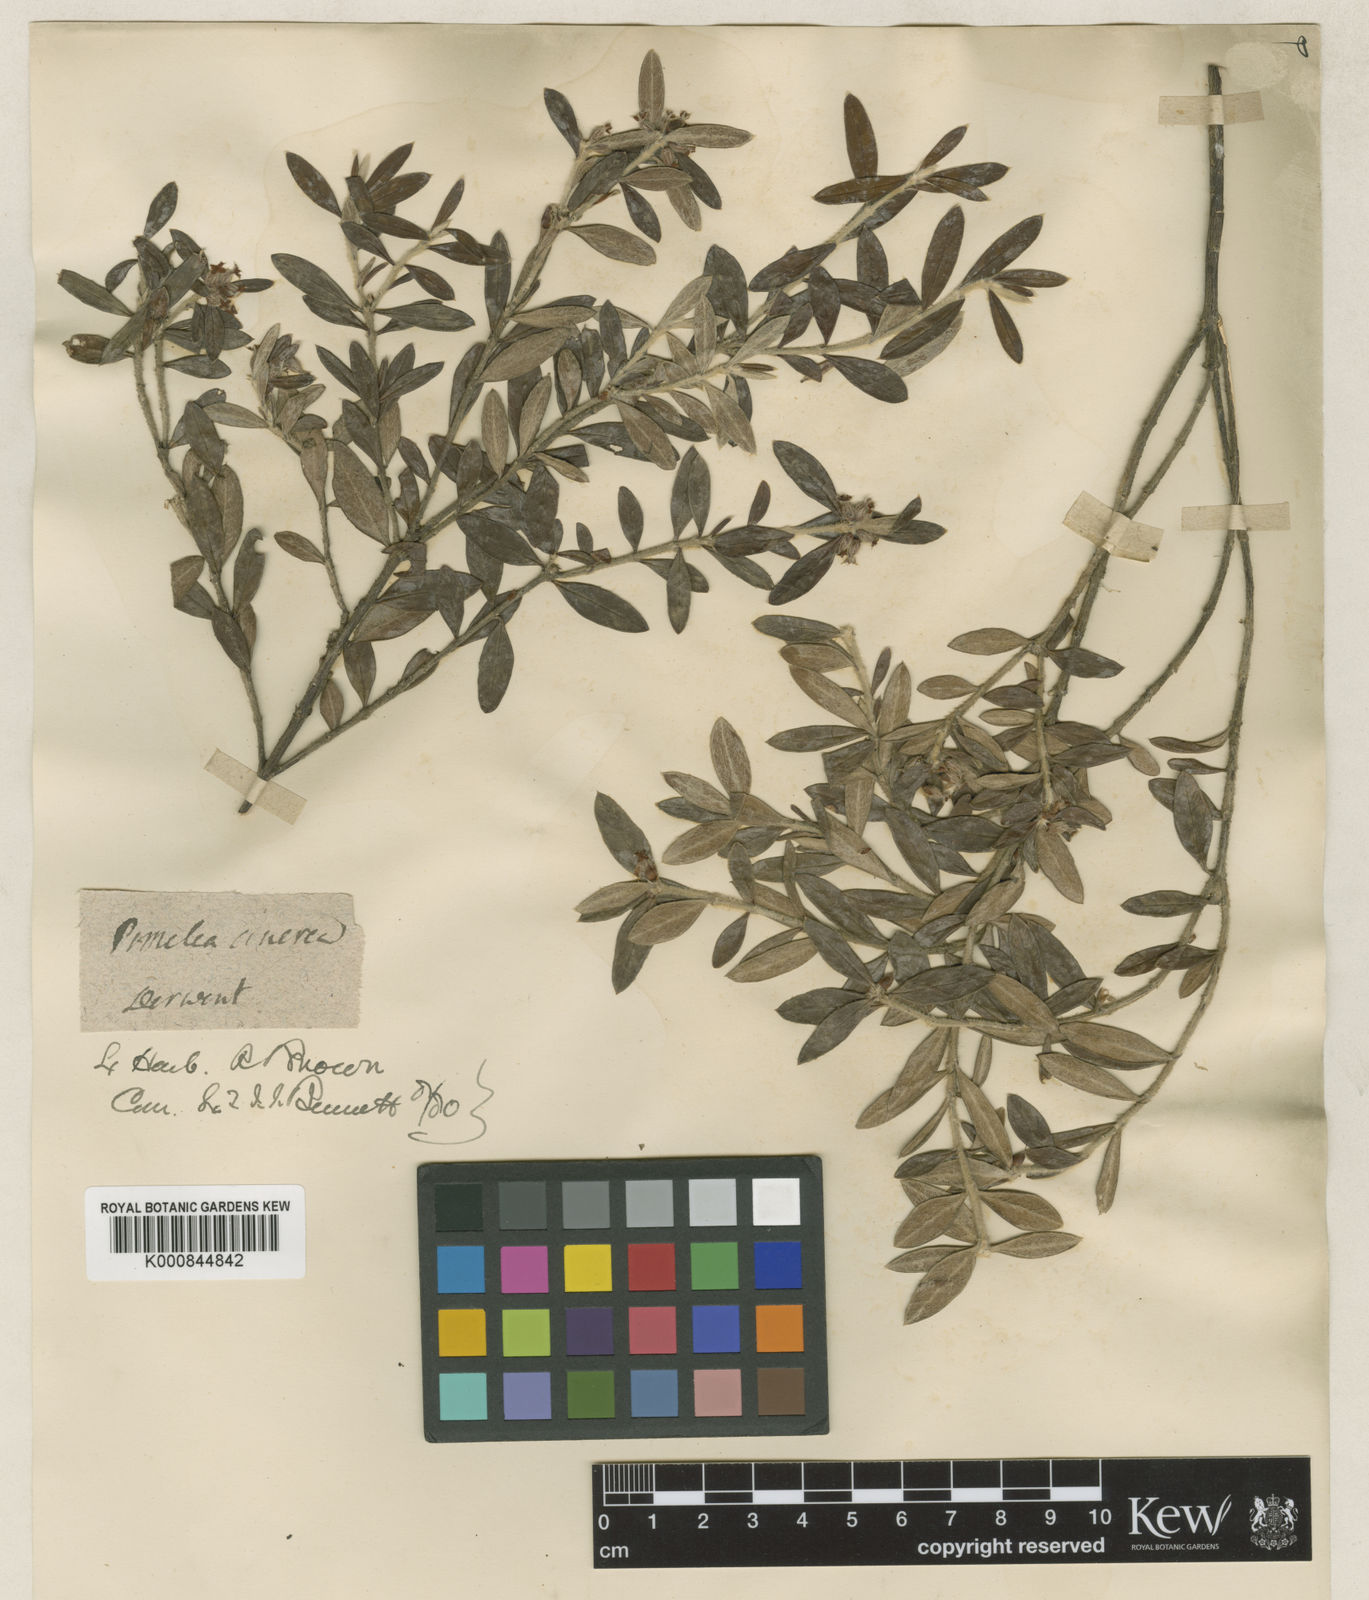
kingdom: Plantae
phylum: Tracheophyta
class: Magnoliopsida
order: Malvales
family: Thymelaeaceae
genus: Pimelea
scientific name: Pimelea cinerea
